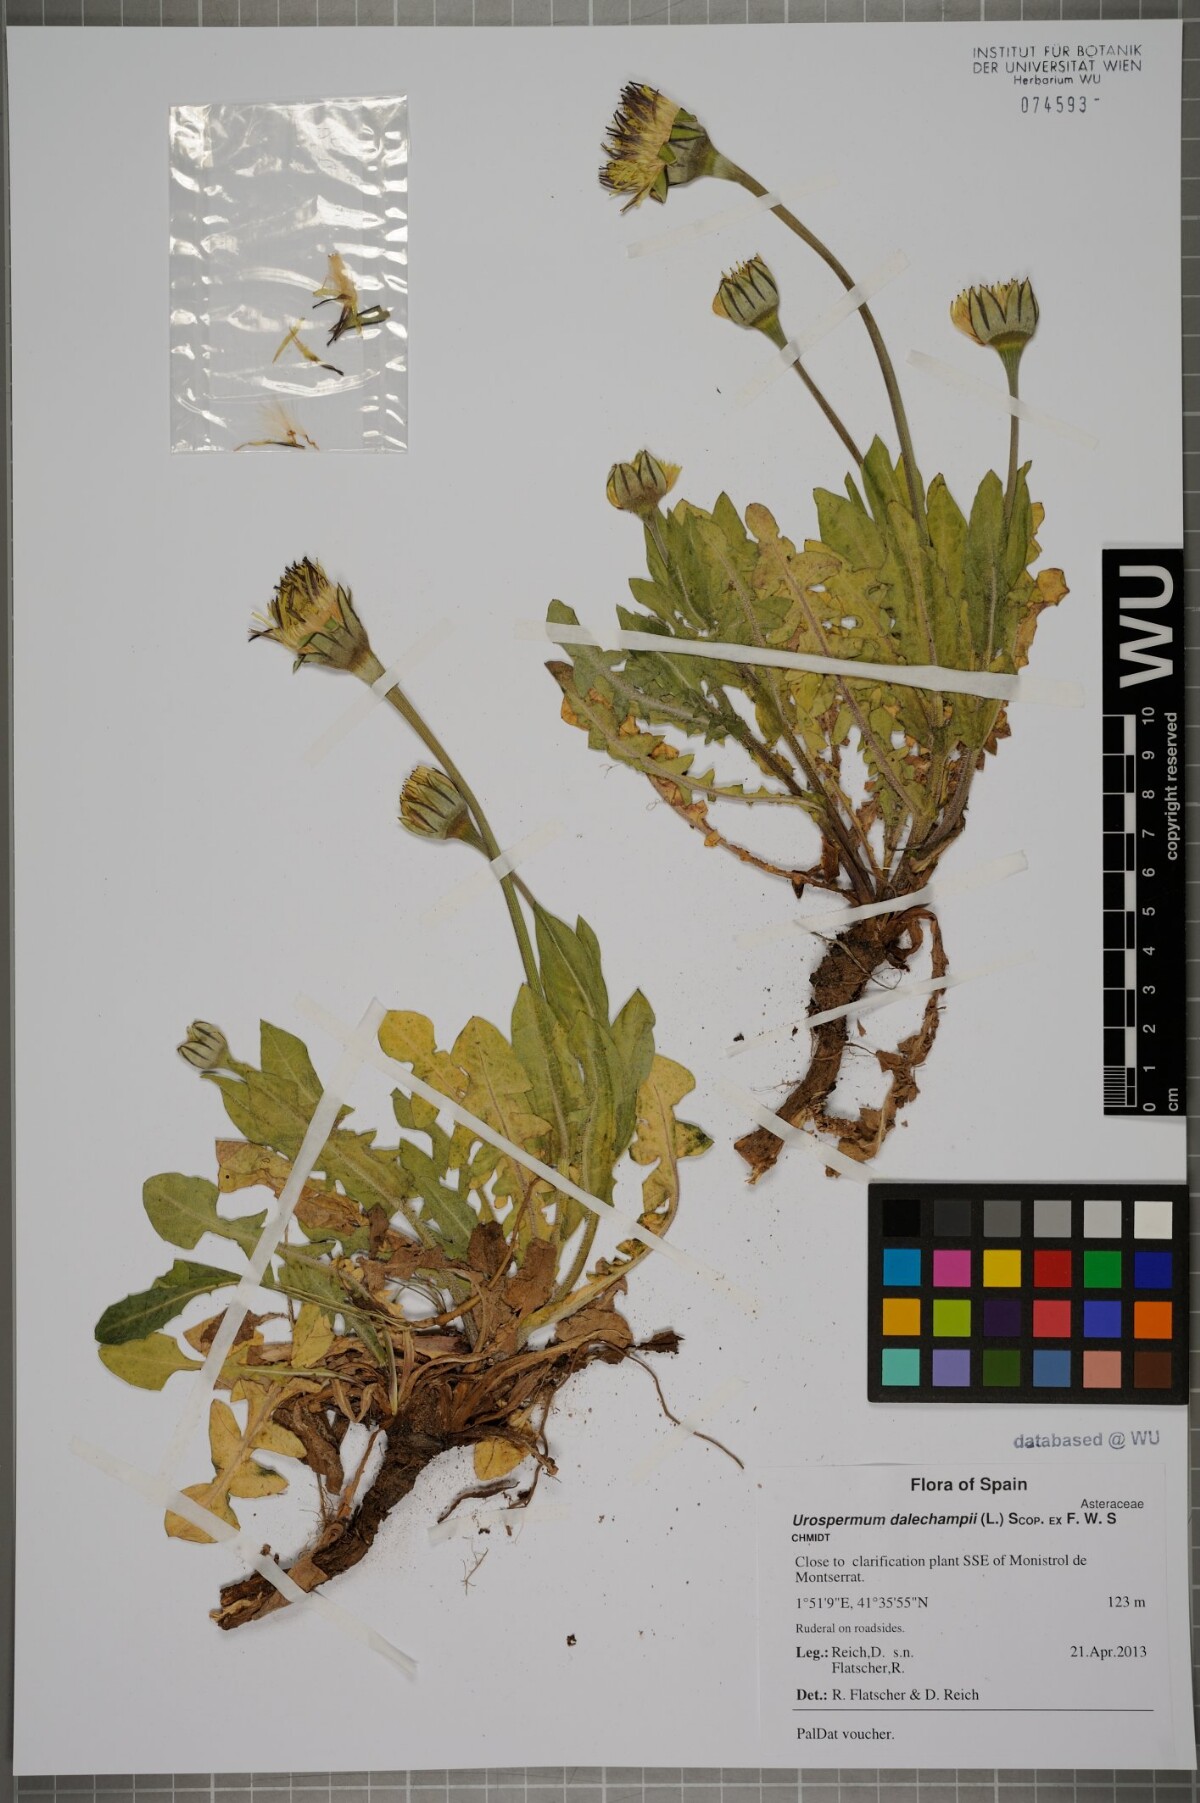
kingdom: Plantae
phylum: Tracheophyta
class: Magnoliopsida
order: Asterales
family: Asteraceae
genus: Urospermum
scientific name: Urospermum dalechampii
